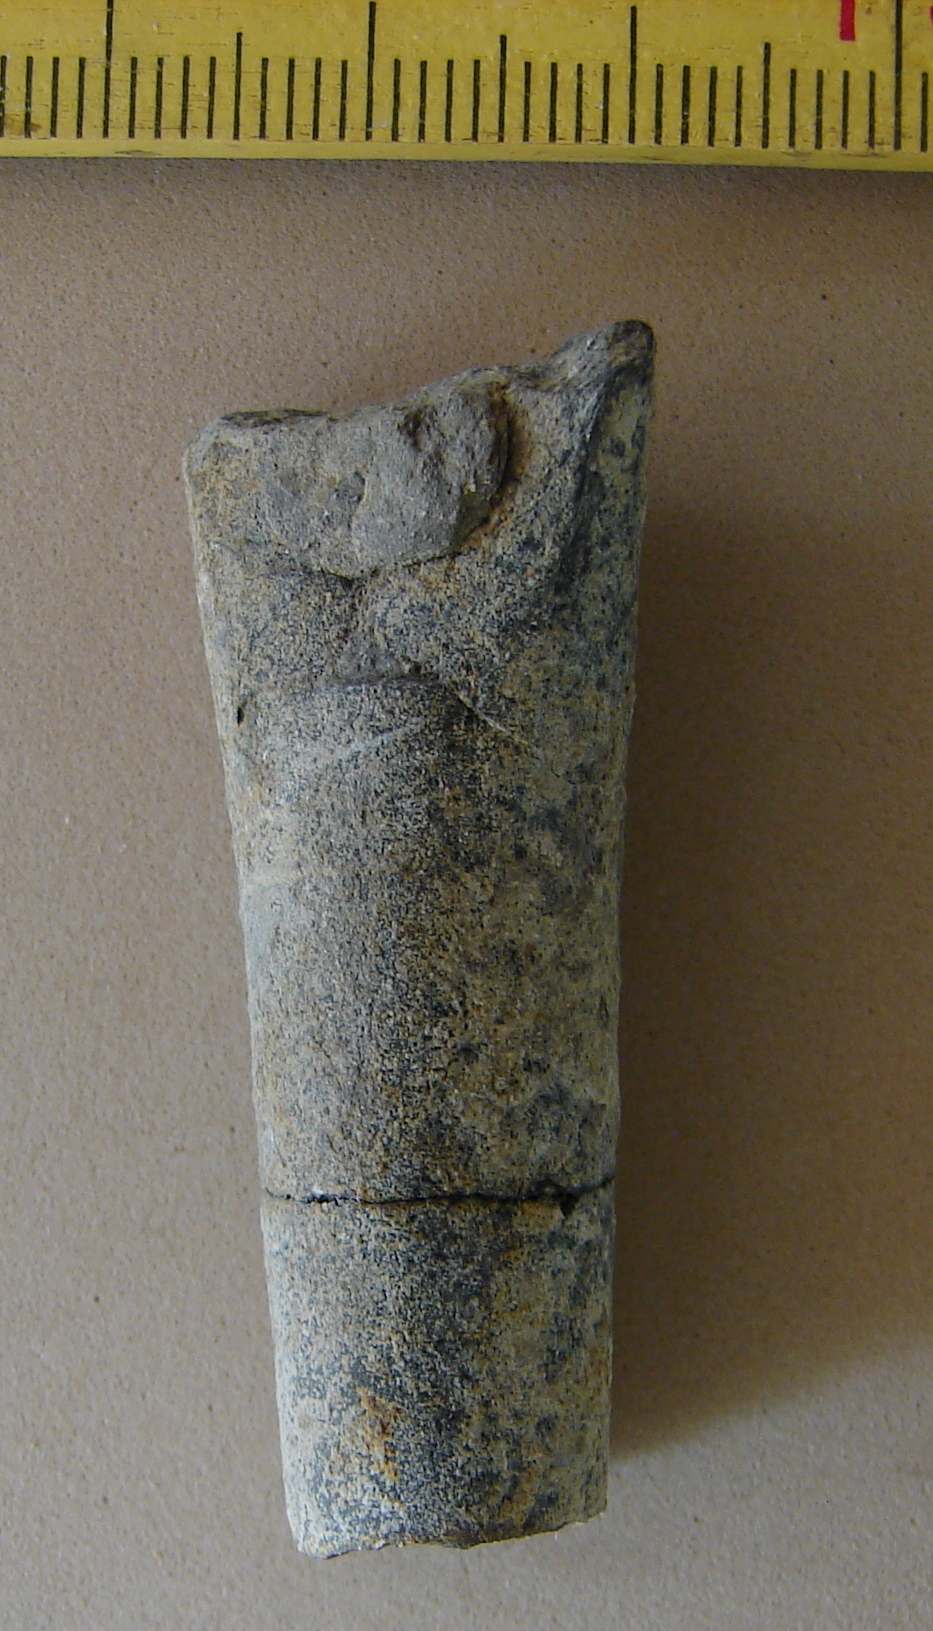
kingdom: Animalia
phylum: Mollusca
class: Cephalopoda
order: Belemnitida
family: Holcobelidae
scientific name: Holcobelidae
